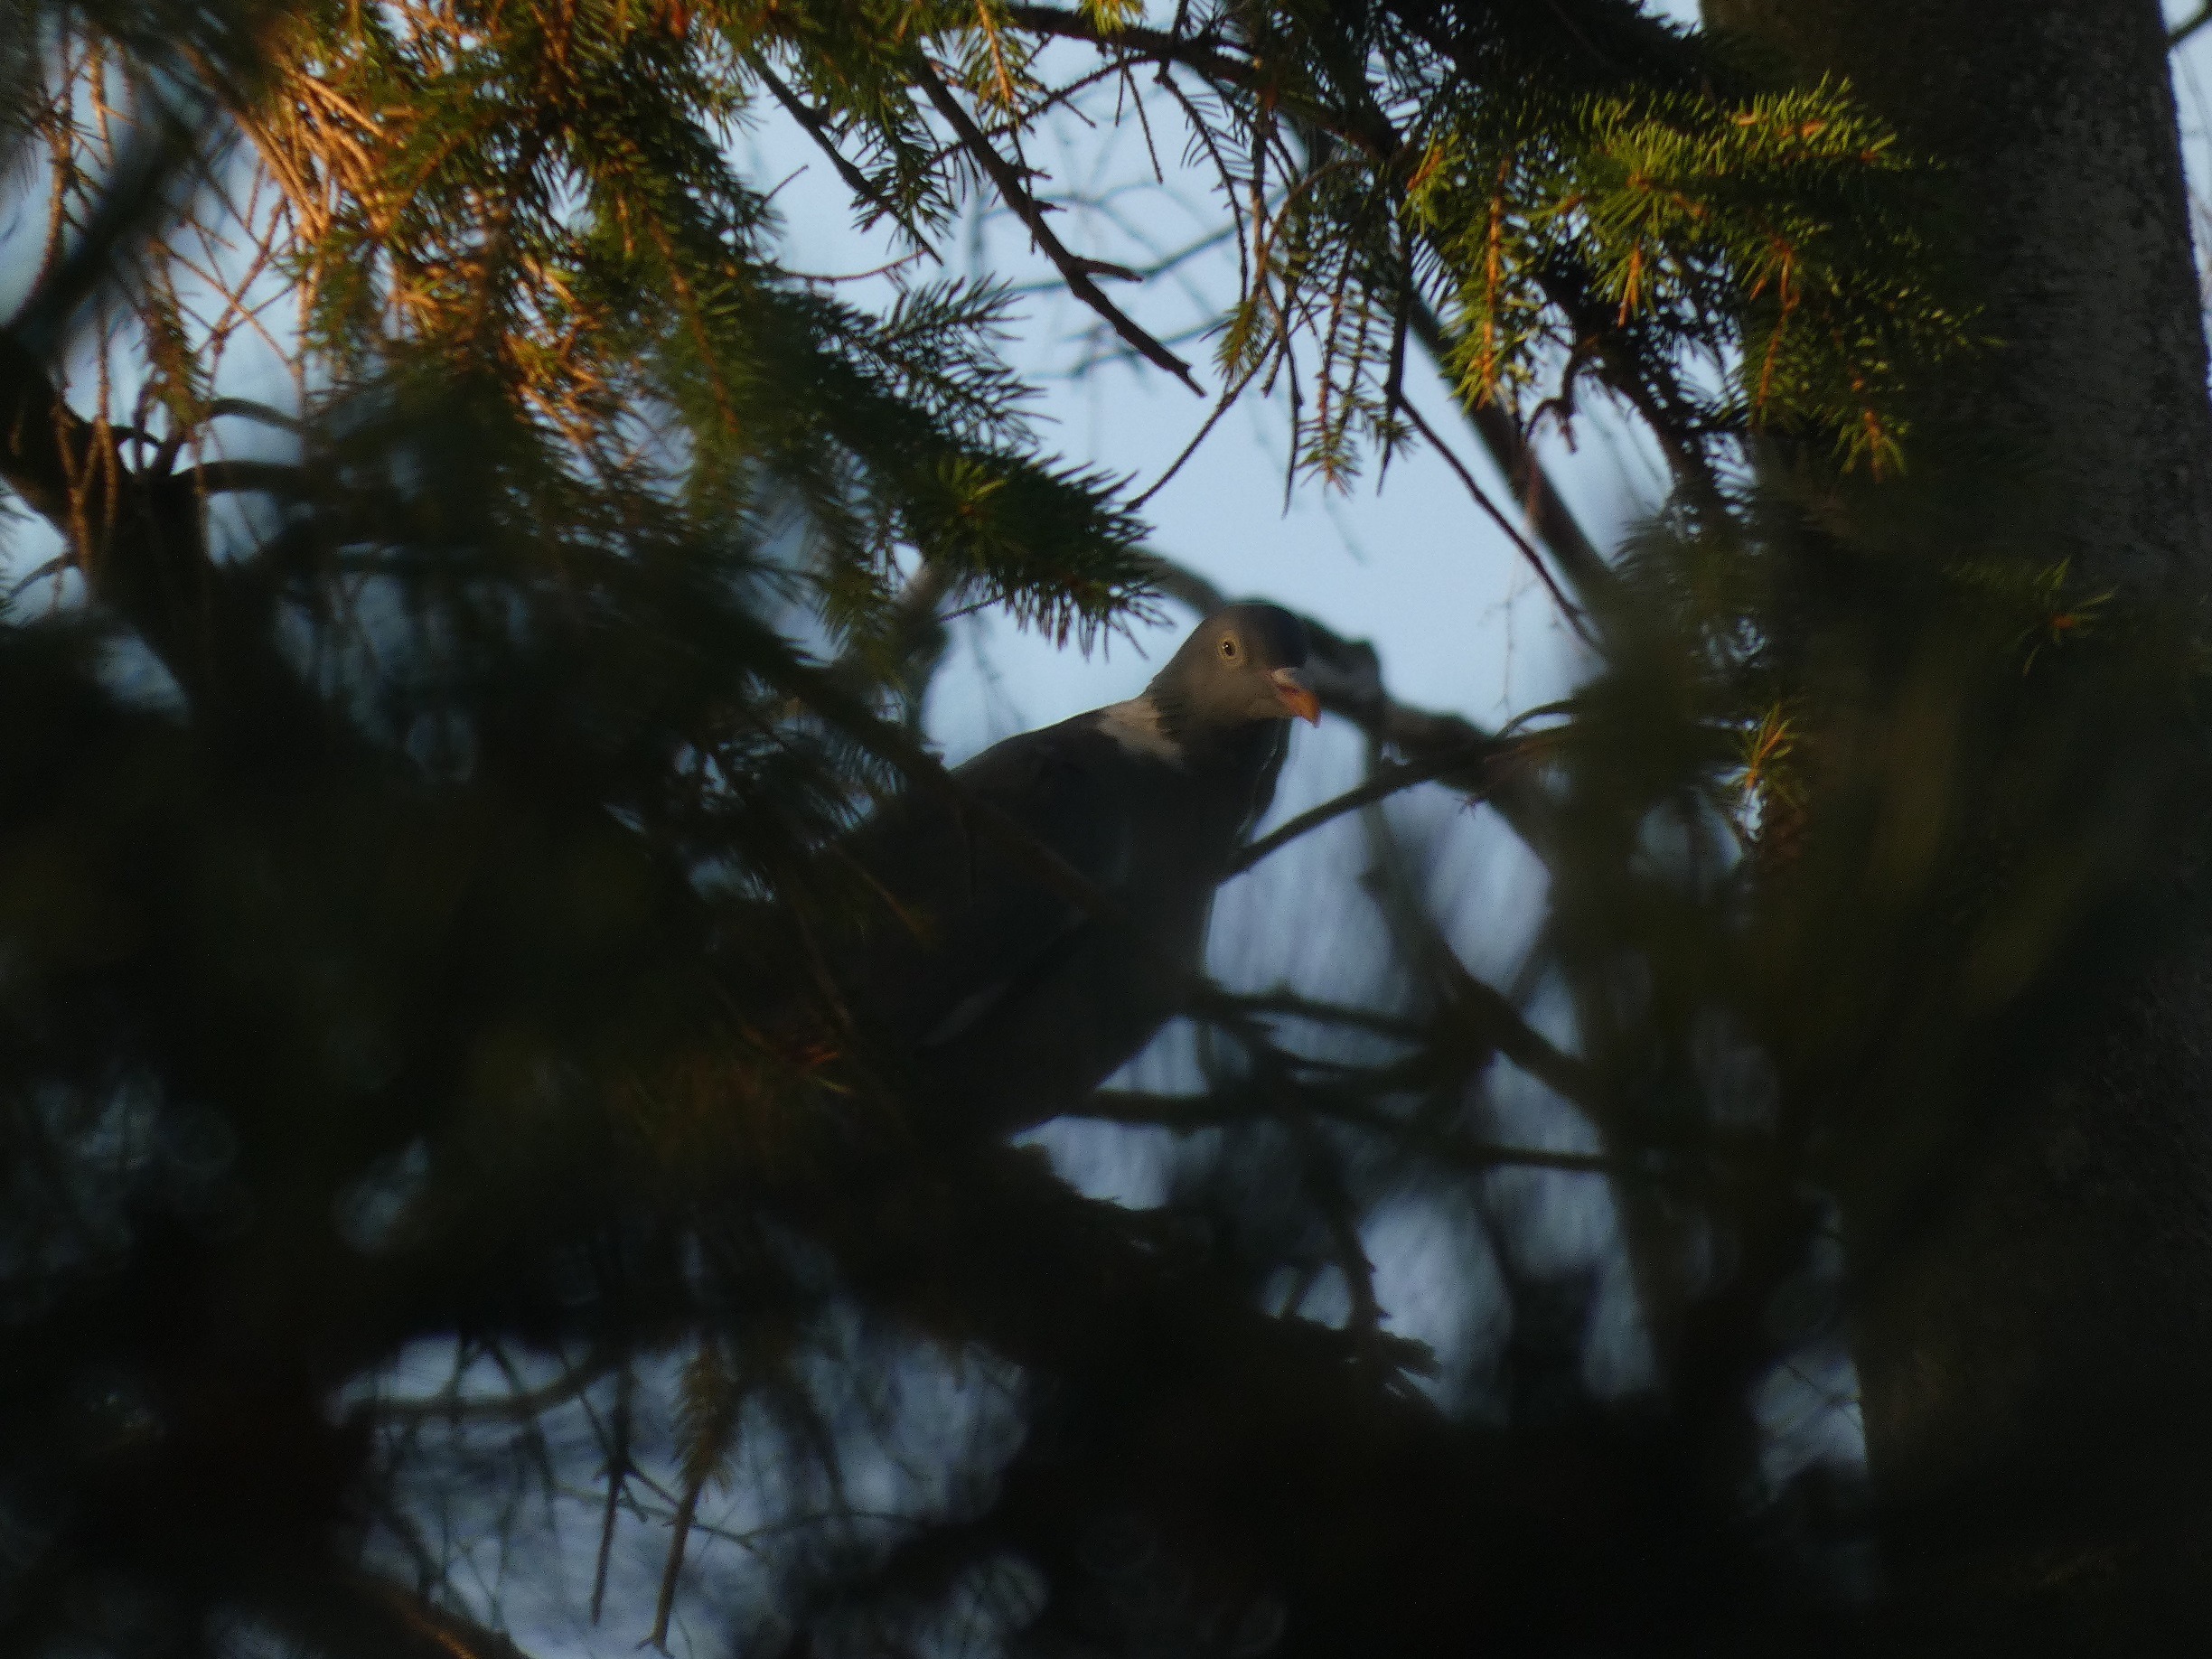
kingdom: Animalia
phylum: Chordata
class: Aves
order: Columbiformes
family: Columbidae
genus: Columba
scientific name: Columba palumbus
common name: Ringdue
